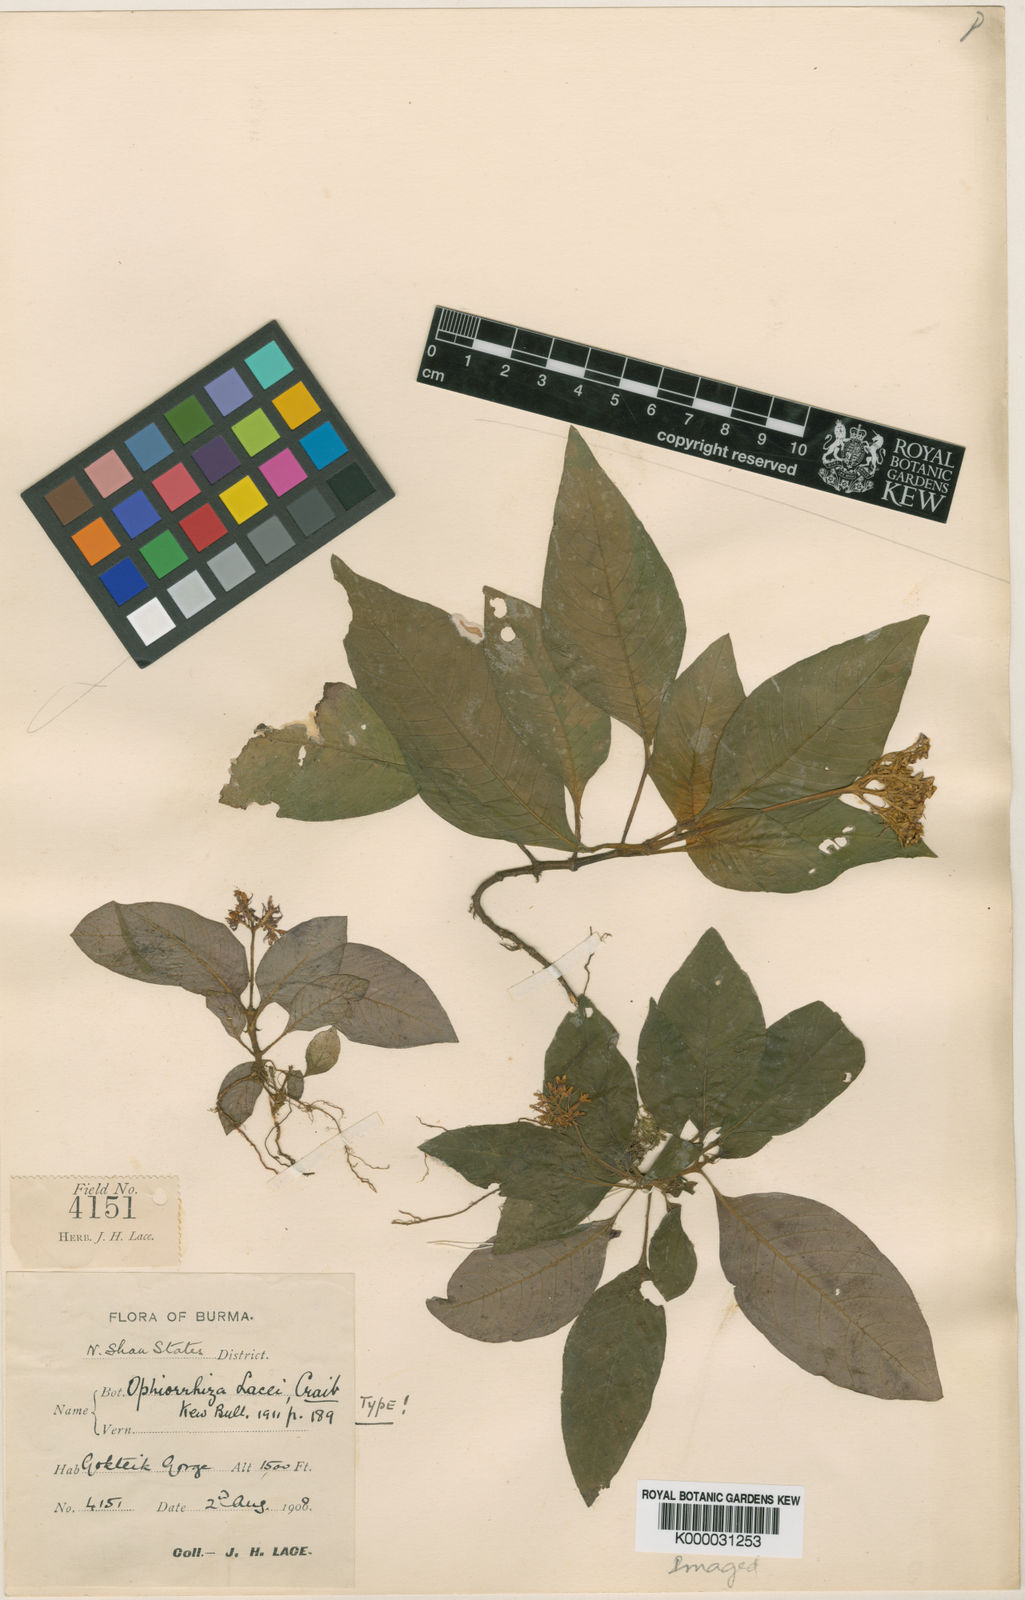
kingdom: Plantae
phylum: Tracheophyta
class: Magnoliopsida
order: Gentianales
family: Rubiaceae
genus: Ophiorrhiza
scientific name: Ophiorrhiza
